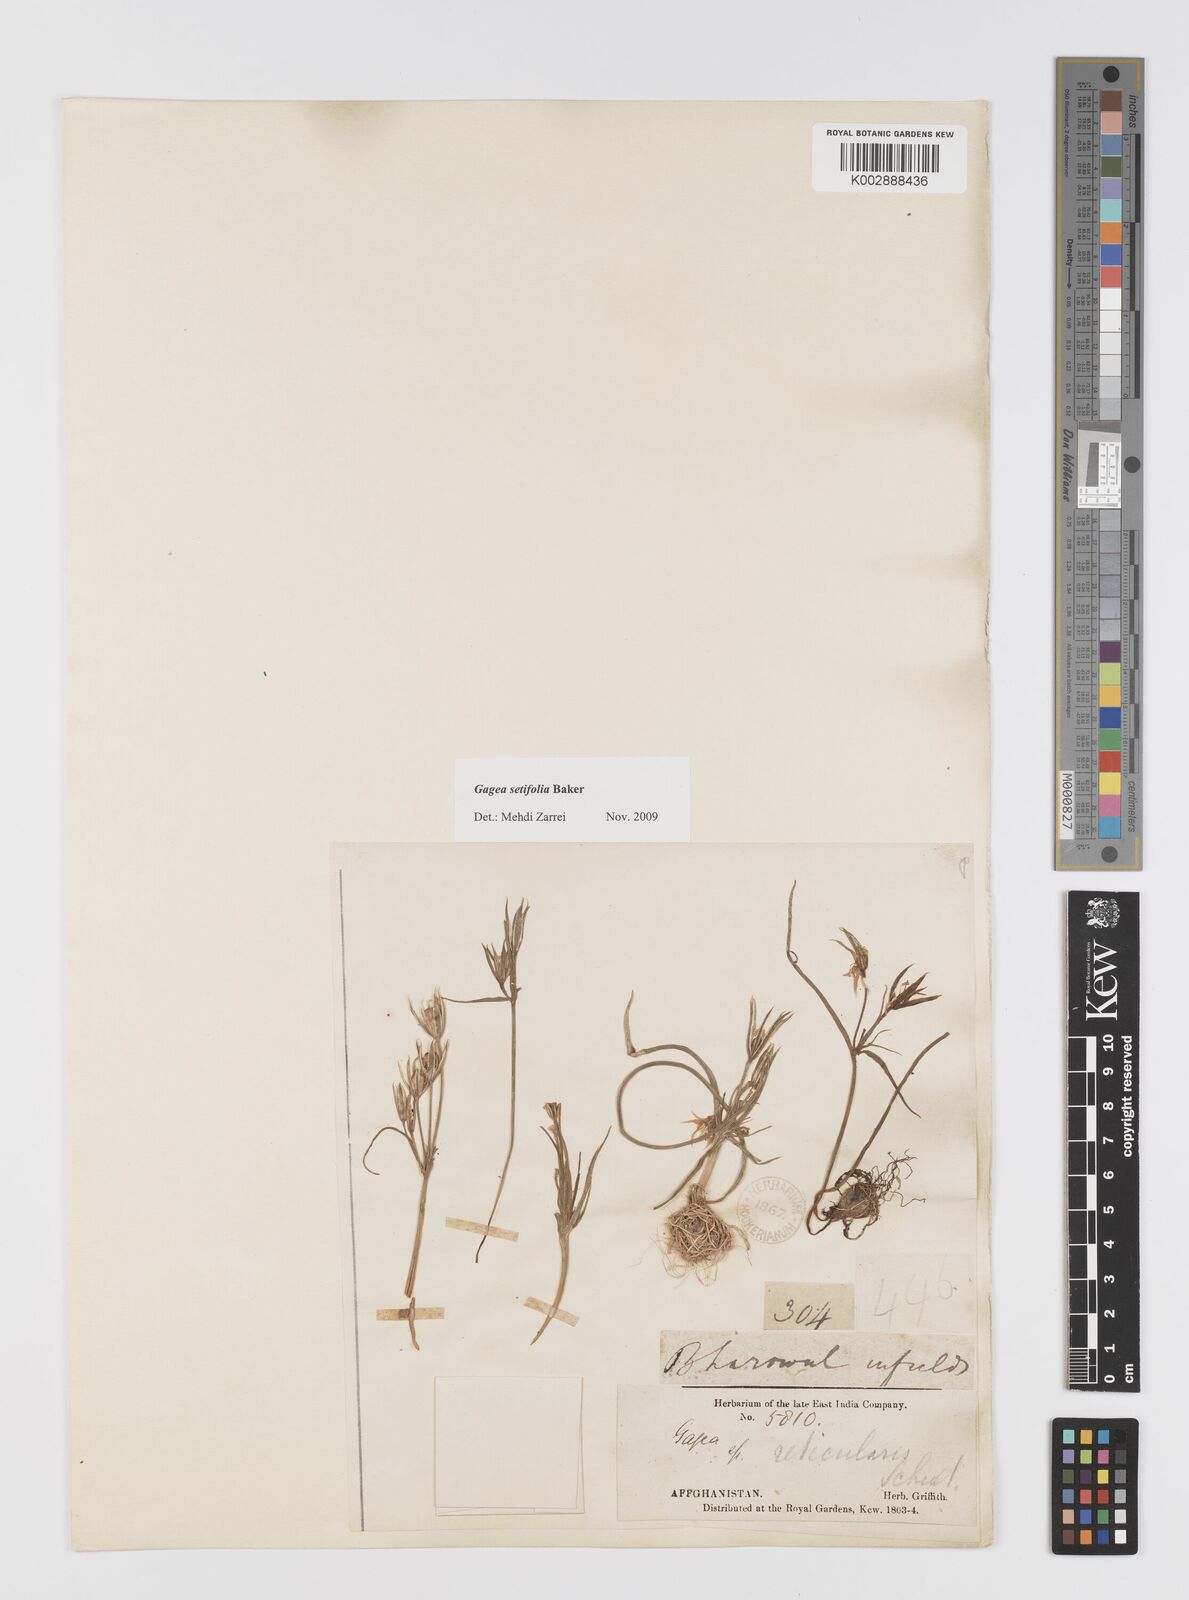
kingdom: Plantae
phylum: Tracheophyta
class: Liliopsida
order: Liliales
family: Liliaceae
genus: Gagea
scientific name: Gagea setifolia
